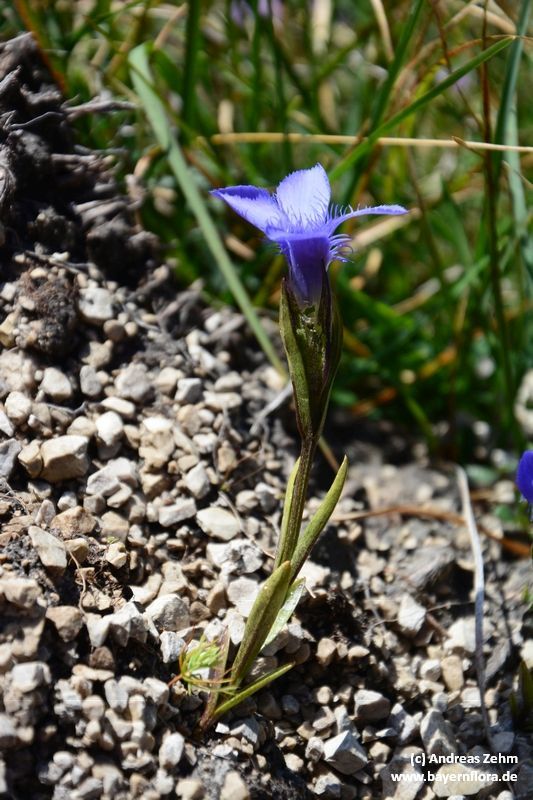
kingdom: Plantae
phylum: Tracheophyta
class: Magnoliopsida
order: Gentianales
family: Gentianaceae
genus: Gentianopsis
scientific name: Gentianopsis ciliata
